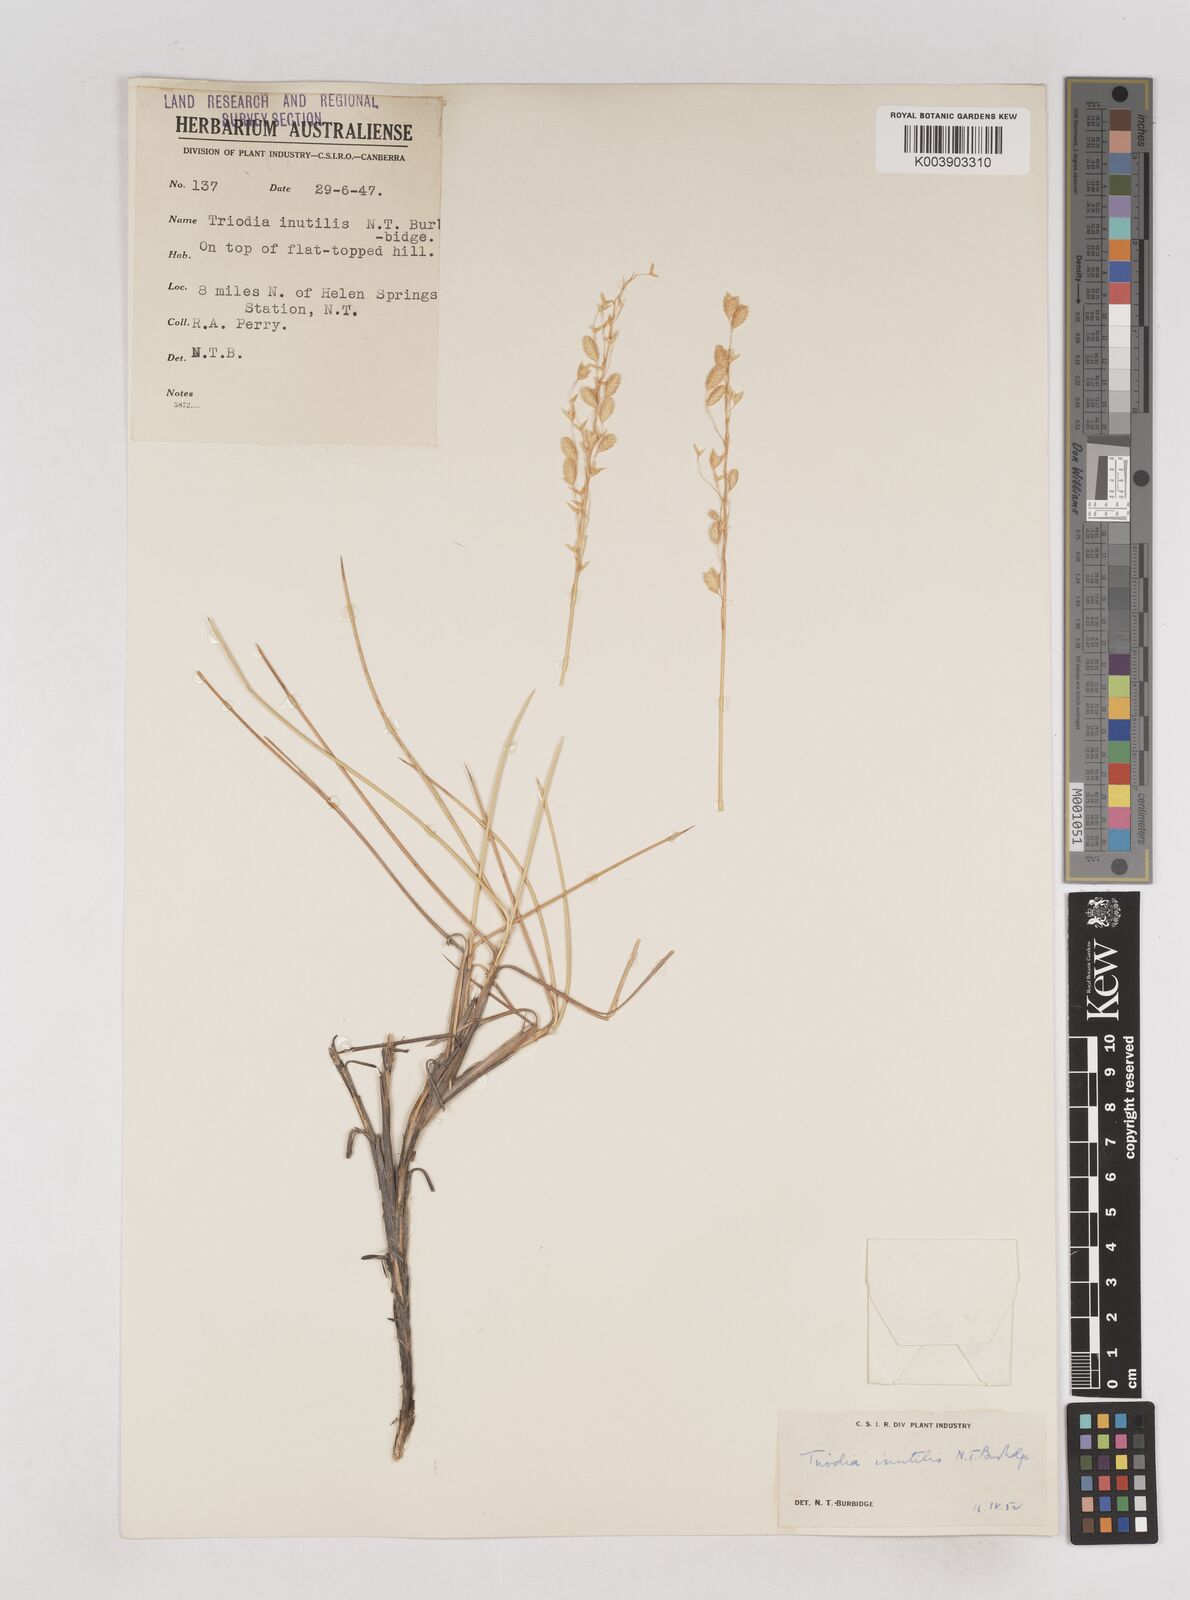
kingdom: Plantae
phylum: Tracheophyta
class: Liliopsida
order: Poales
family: Poaceae
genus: Triodia
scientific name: Triodia inutilis
